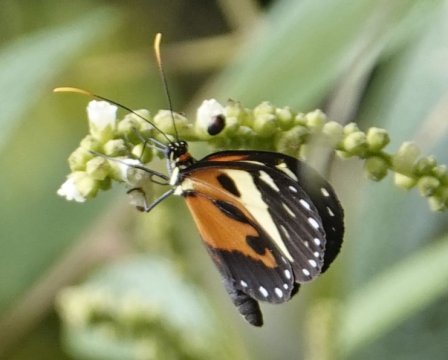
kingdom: Animalia
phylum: Arthropoda
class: Insecta
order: Lepidoptera
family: Nymphalidae
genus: Ithomia
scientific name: Ithomia iphianassa
